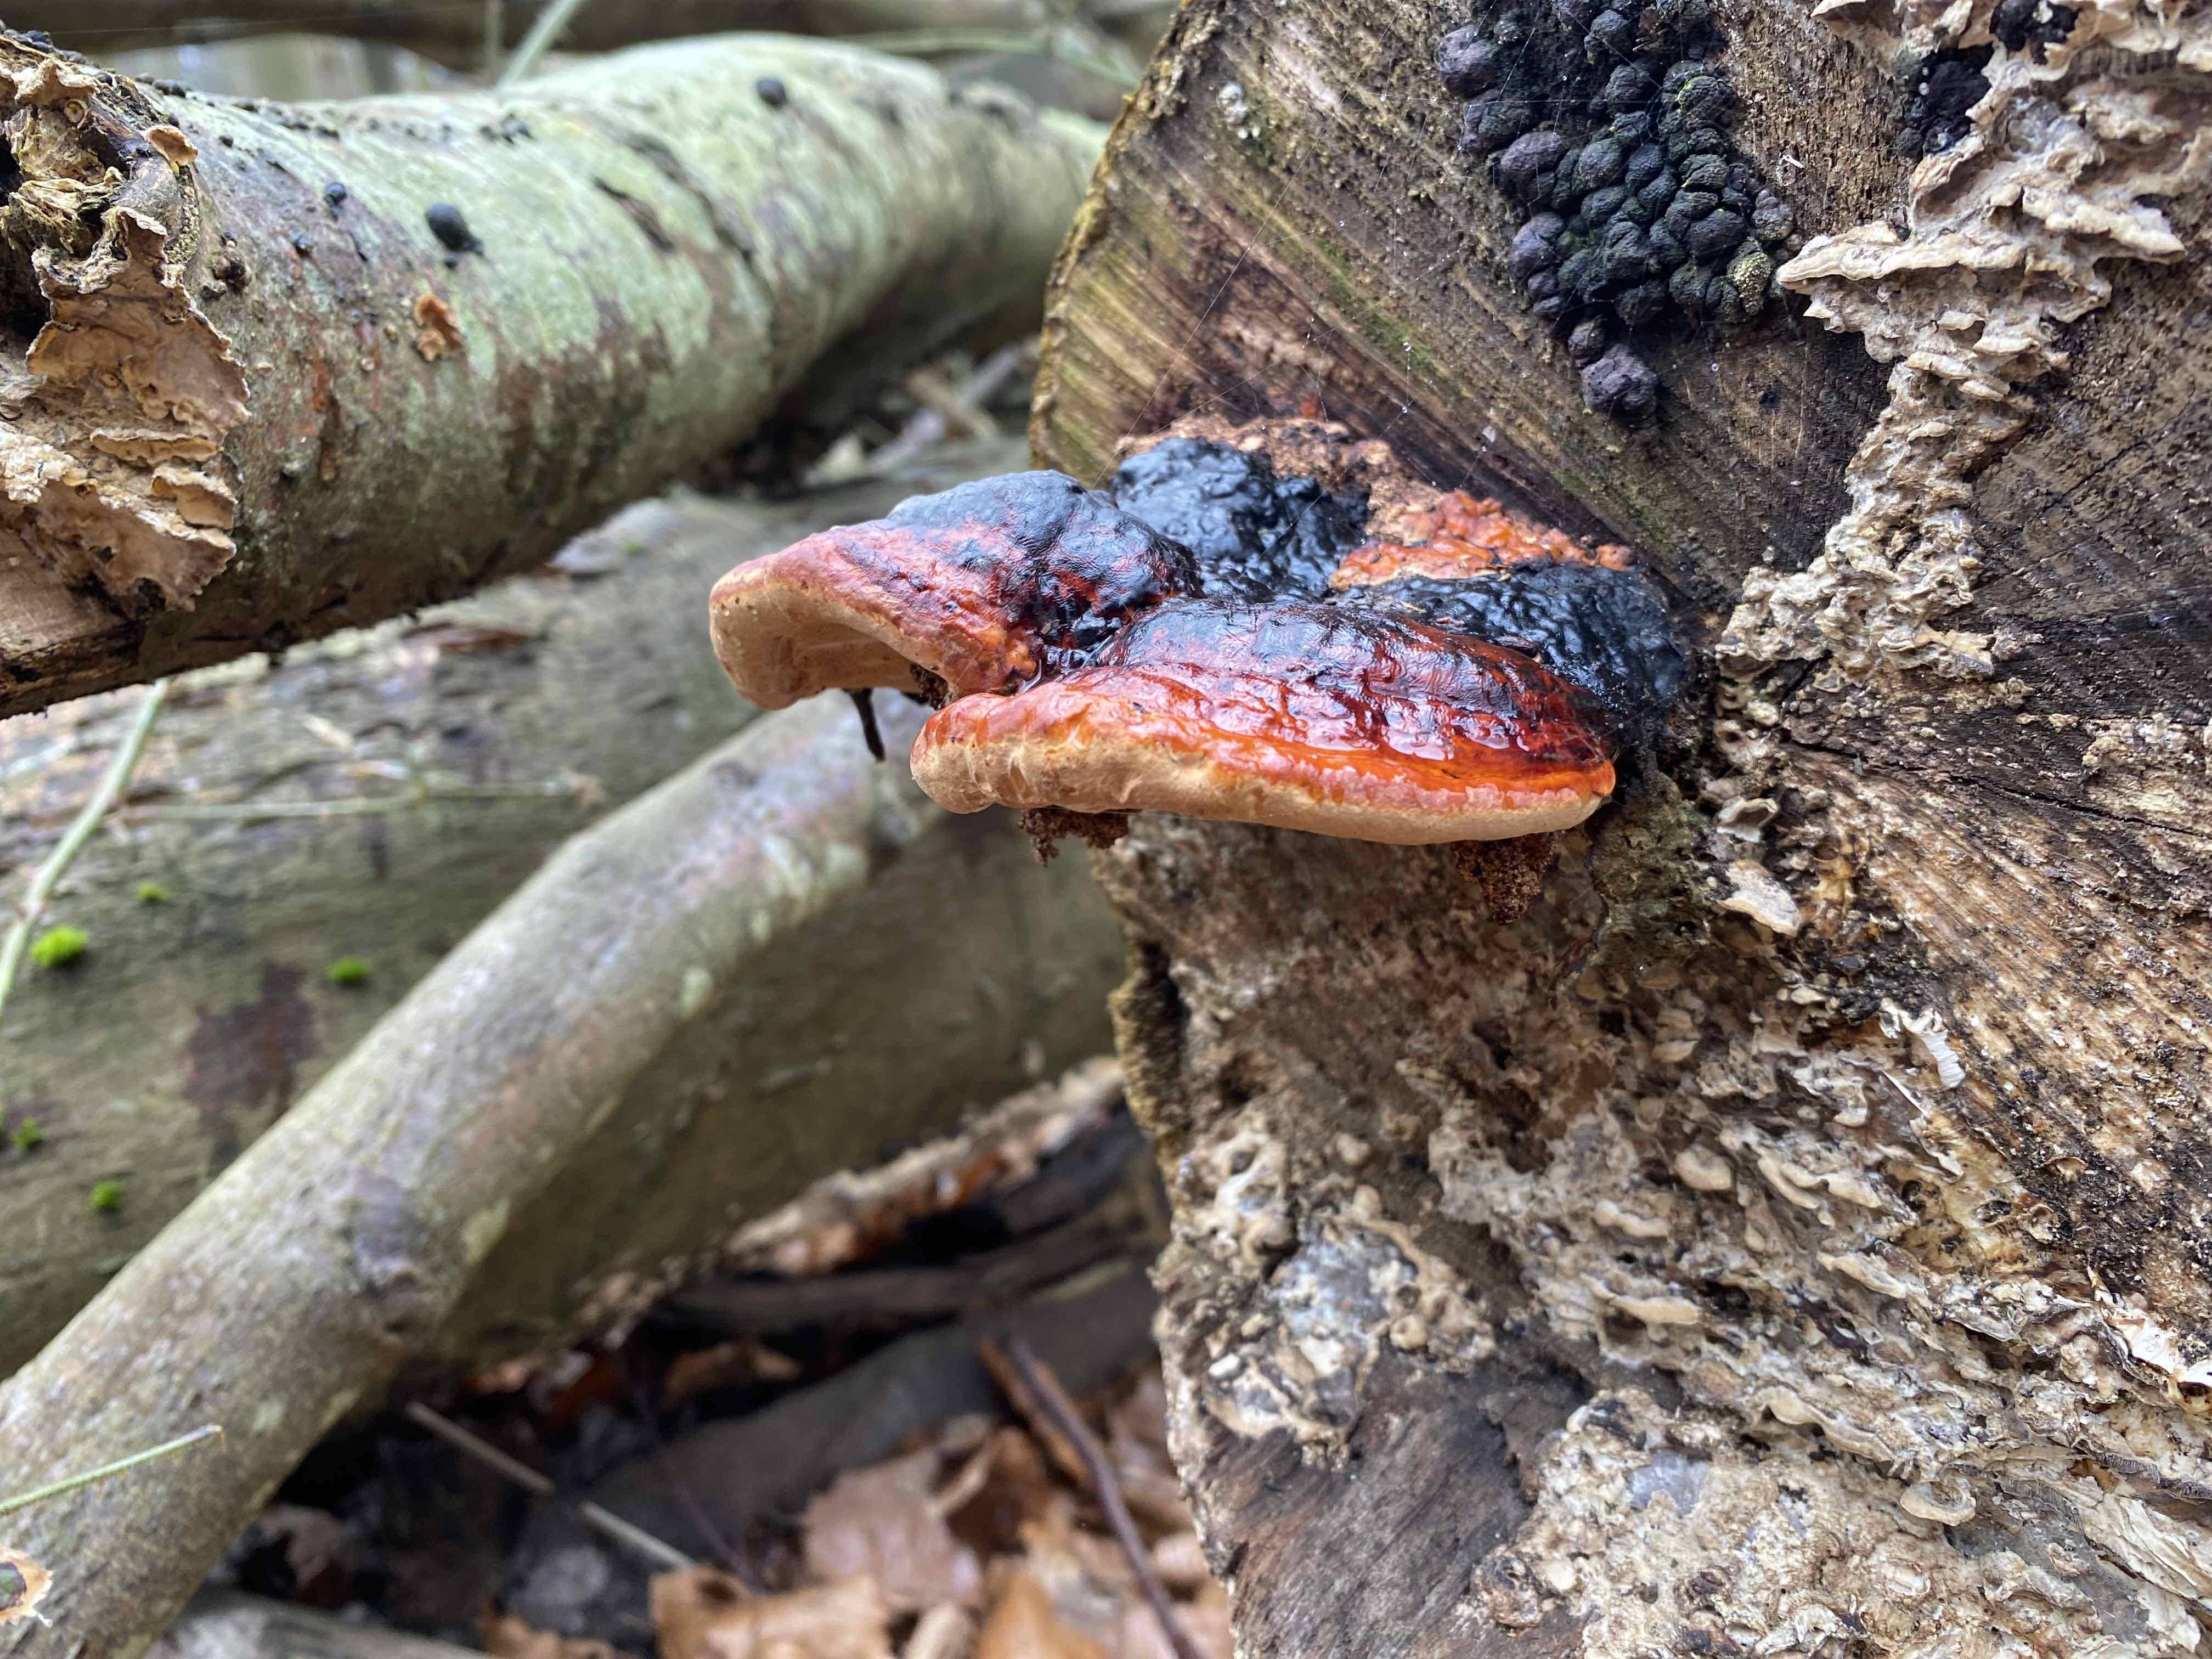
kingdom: Fungi
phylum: Basidiomycota
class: Agaricomycetes
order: Polyporales
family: Fomitopsidaceae
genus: Fomitopsis
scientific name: Fomitopsis pinicola
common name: randbæltet hovporesvamp
